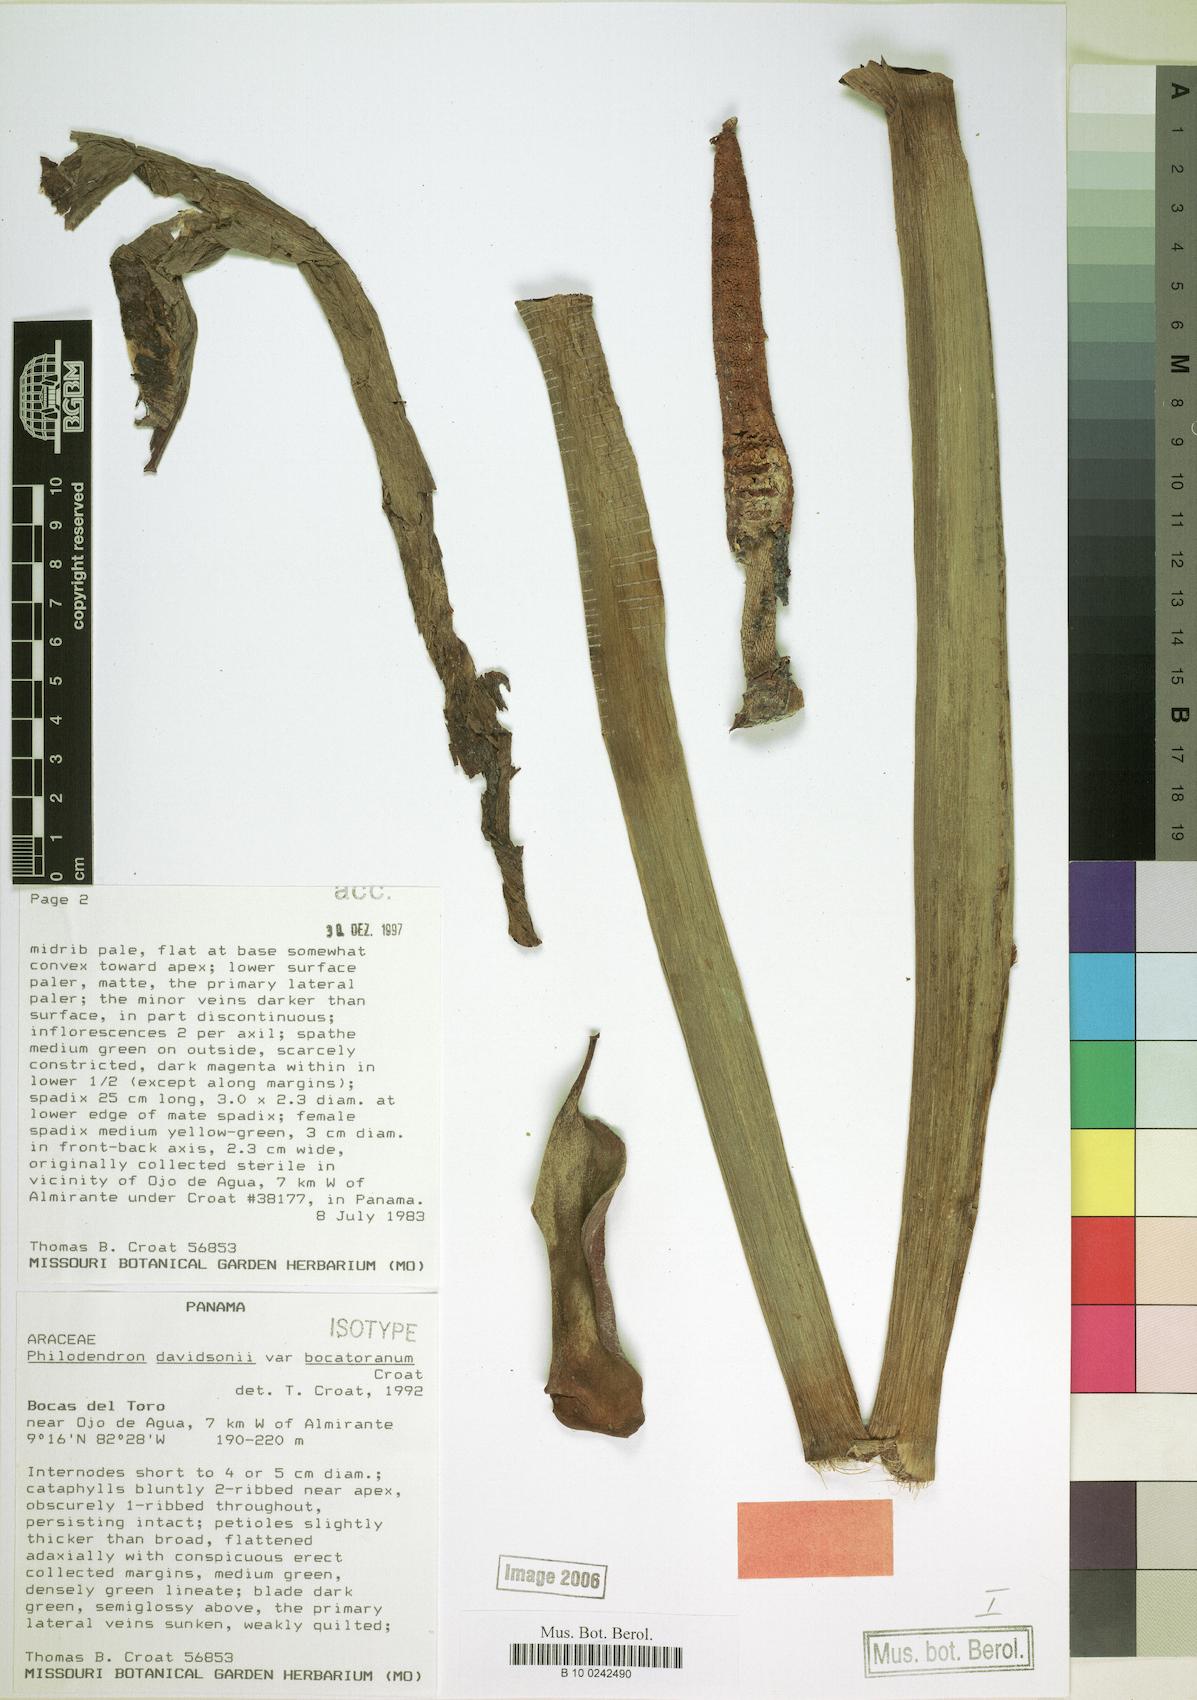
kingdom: Plantae
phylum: Tracheophyta
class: Liliopsida
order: Alismatales
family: Araceae
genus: Philodendron
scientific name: Philodendron davidsonii
